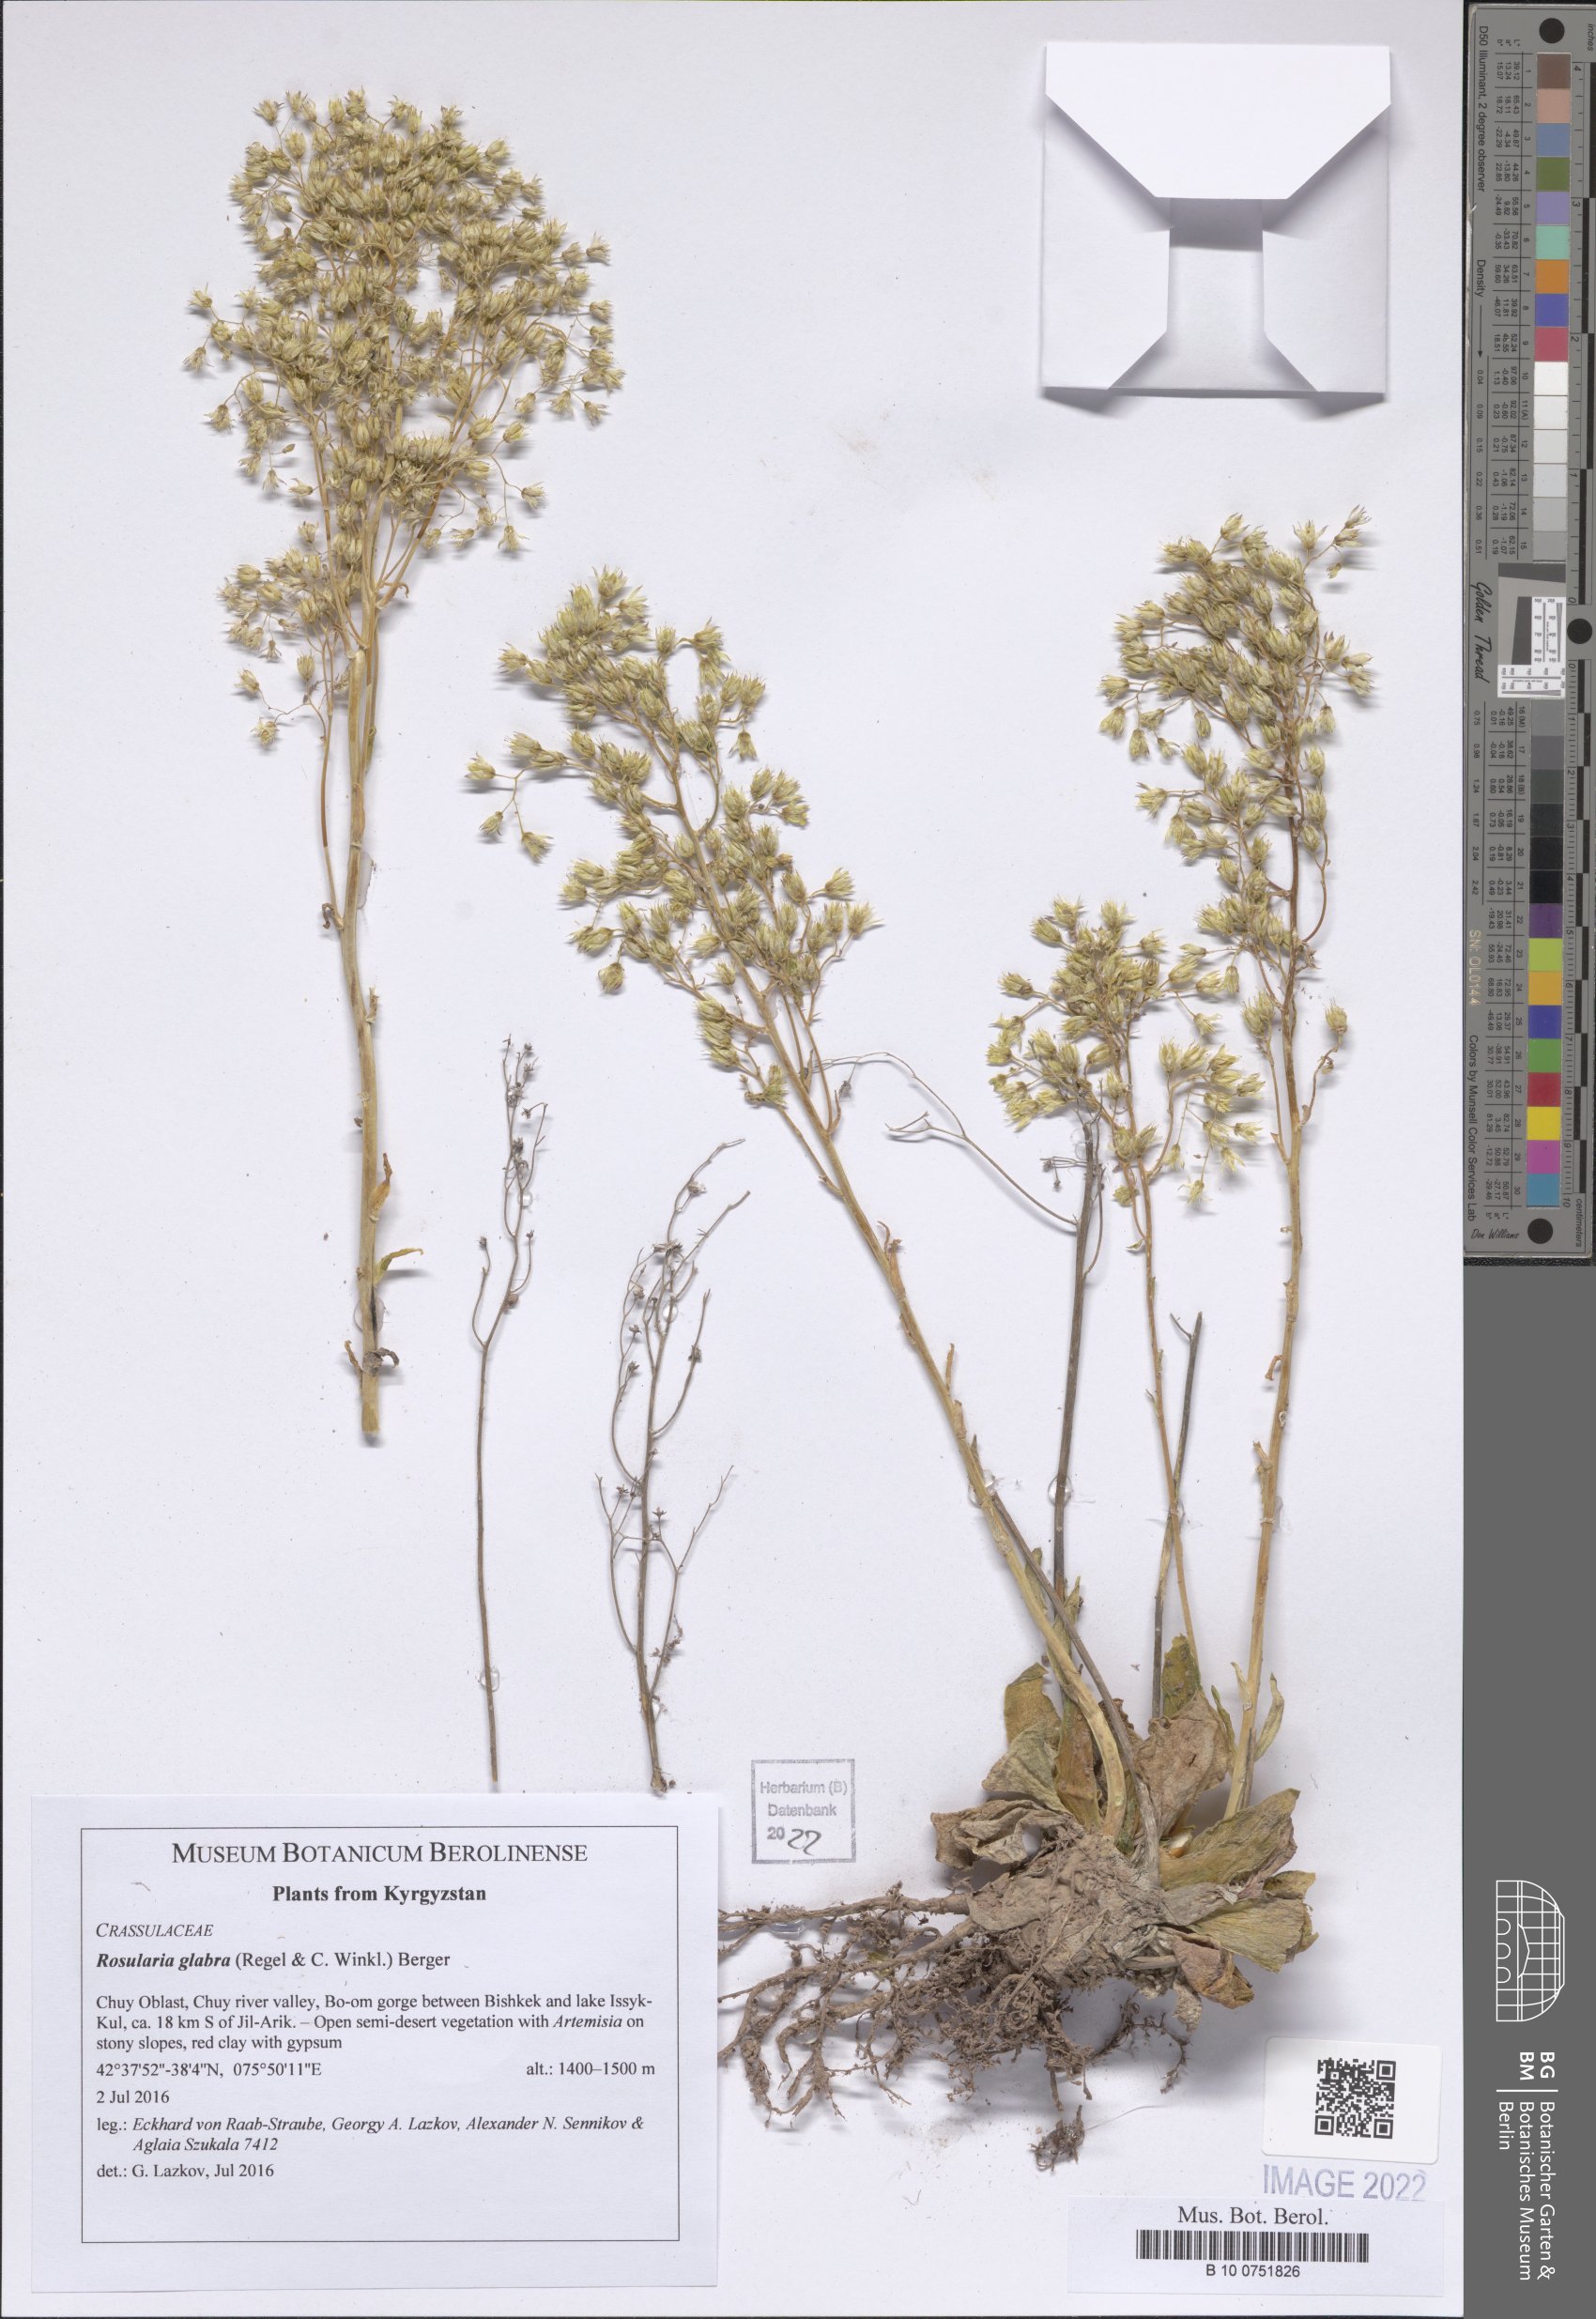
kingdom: Plantae
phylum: Tracheophyta
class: Magnoliopsida
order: Saxifragales
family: Crassulaceae
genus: Rosularia
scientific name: Rosularia glabra
